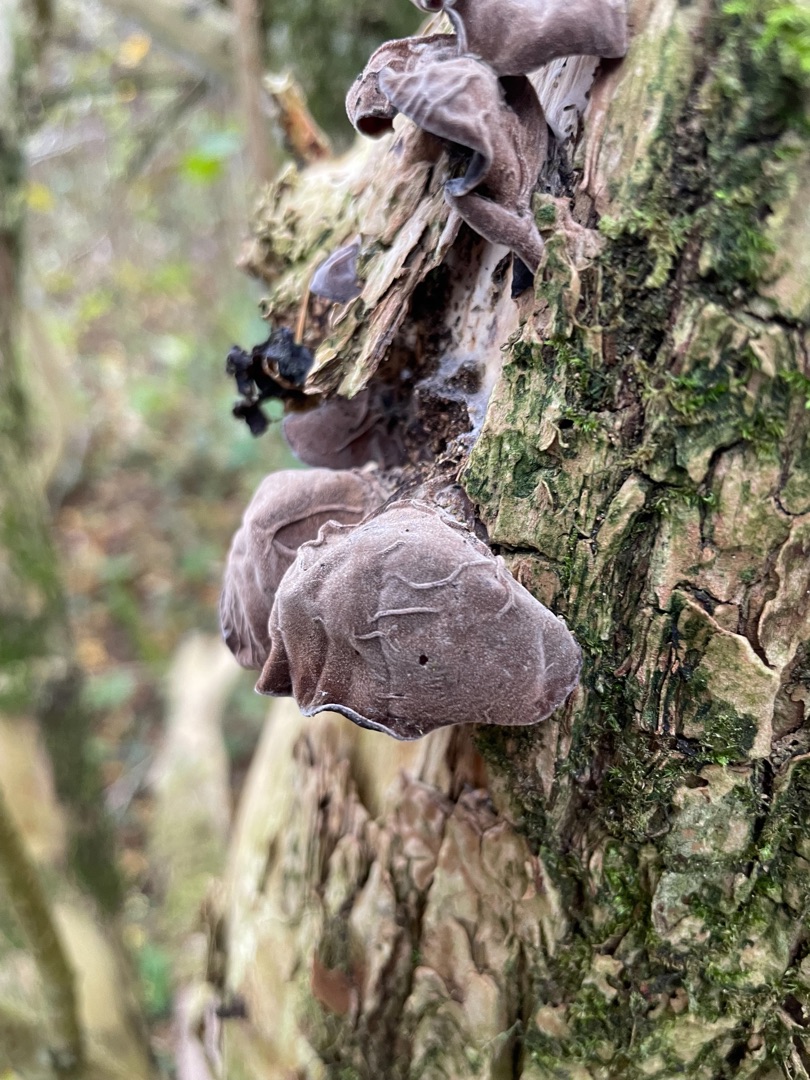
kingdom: Fungi
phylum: Basidiomycota
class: Agaricomycetes
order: Auriculariales
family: Auriculariaceae
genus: Auricularia
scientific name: Auricularia auricula-judae
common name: Almindelig judasøre
